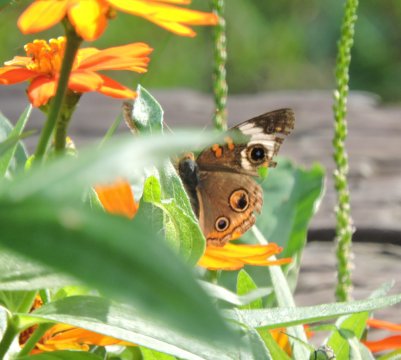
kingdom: Animalia
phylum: Arthropoda
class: Insecta
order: Lepidoptera
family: Nymphalidae
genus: Junonia
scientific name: Junonia coenia
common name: Common Buckeye
